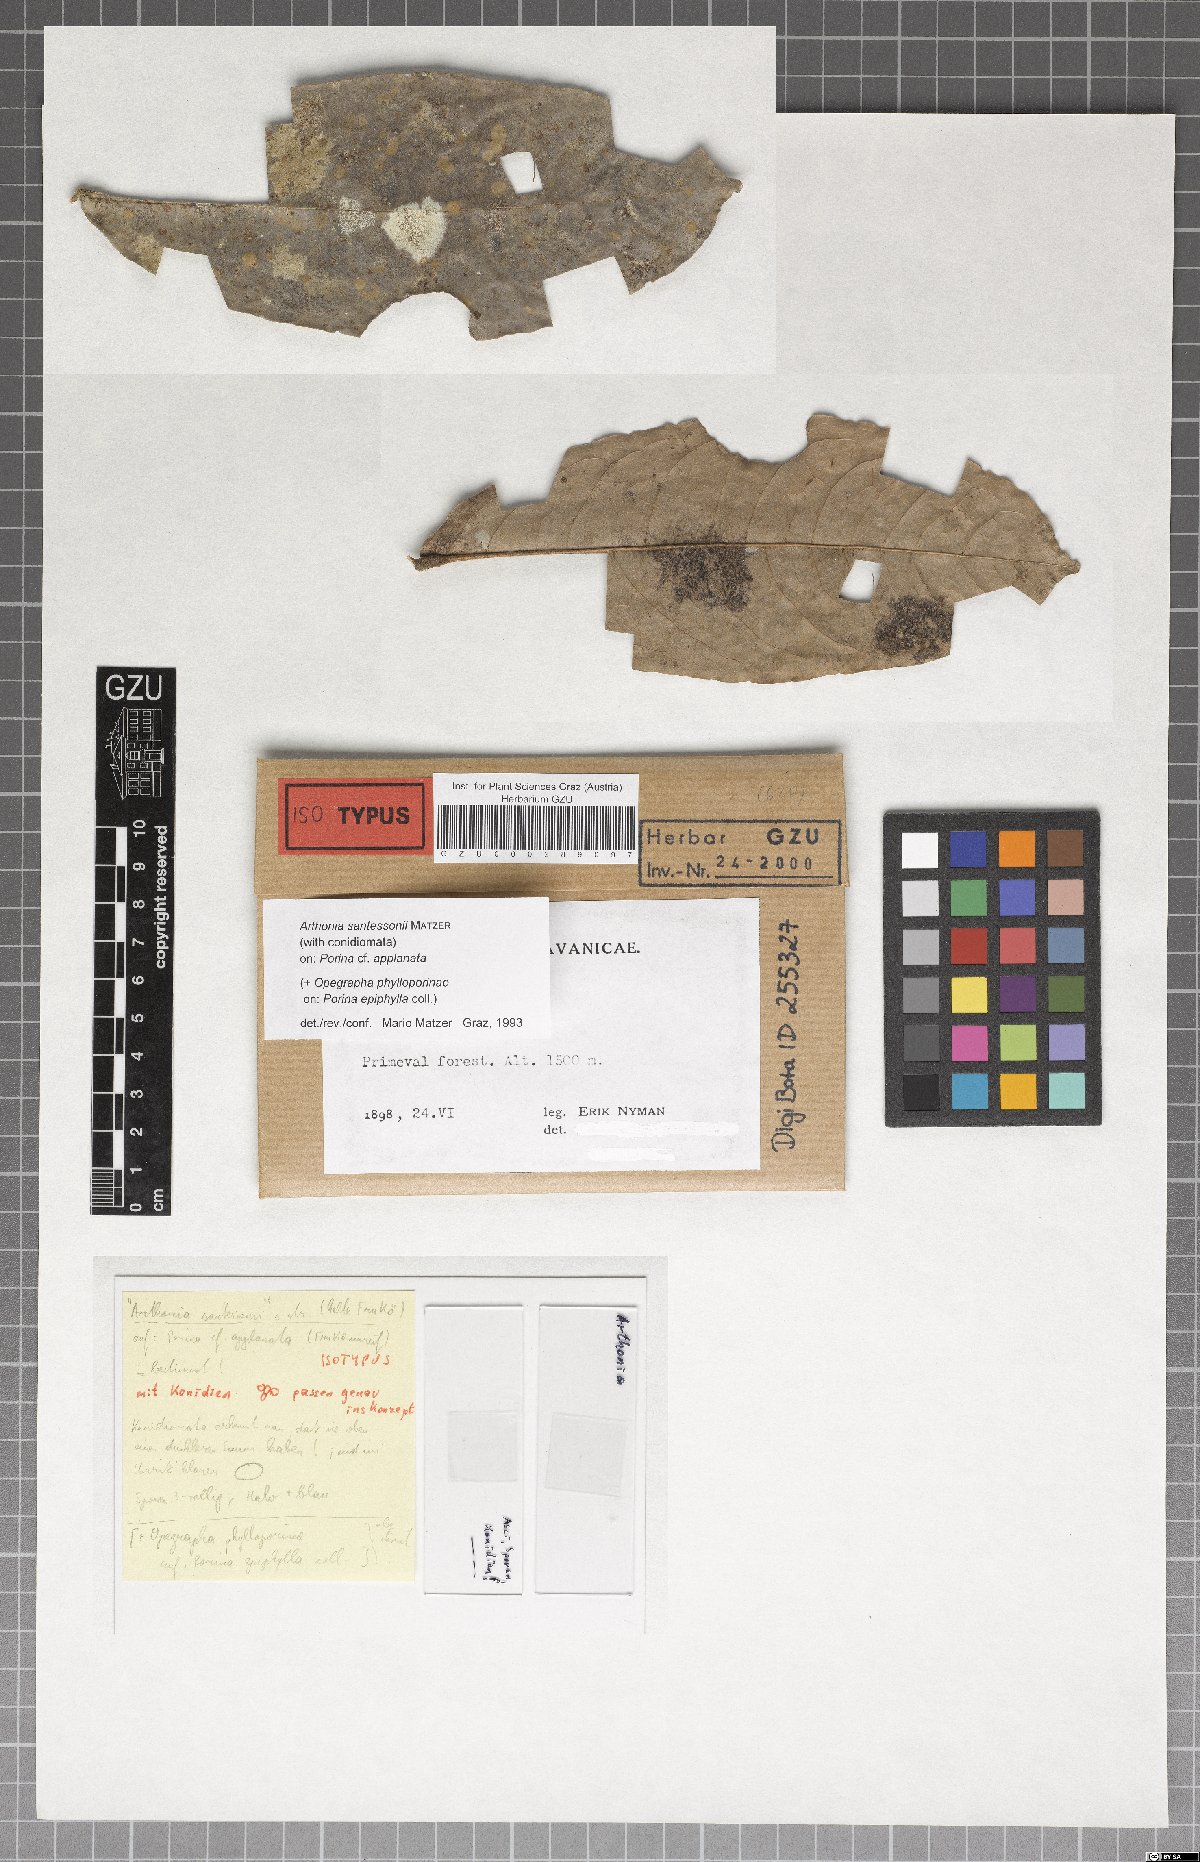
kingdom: Plantae
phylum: Marchantiophyta
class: Jungermanniopsida
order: Jungermanniales
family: Cephaloziaceae
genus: Odontoschisma
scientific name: Odontoschisma
